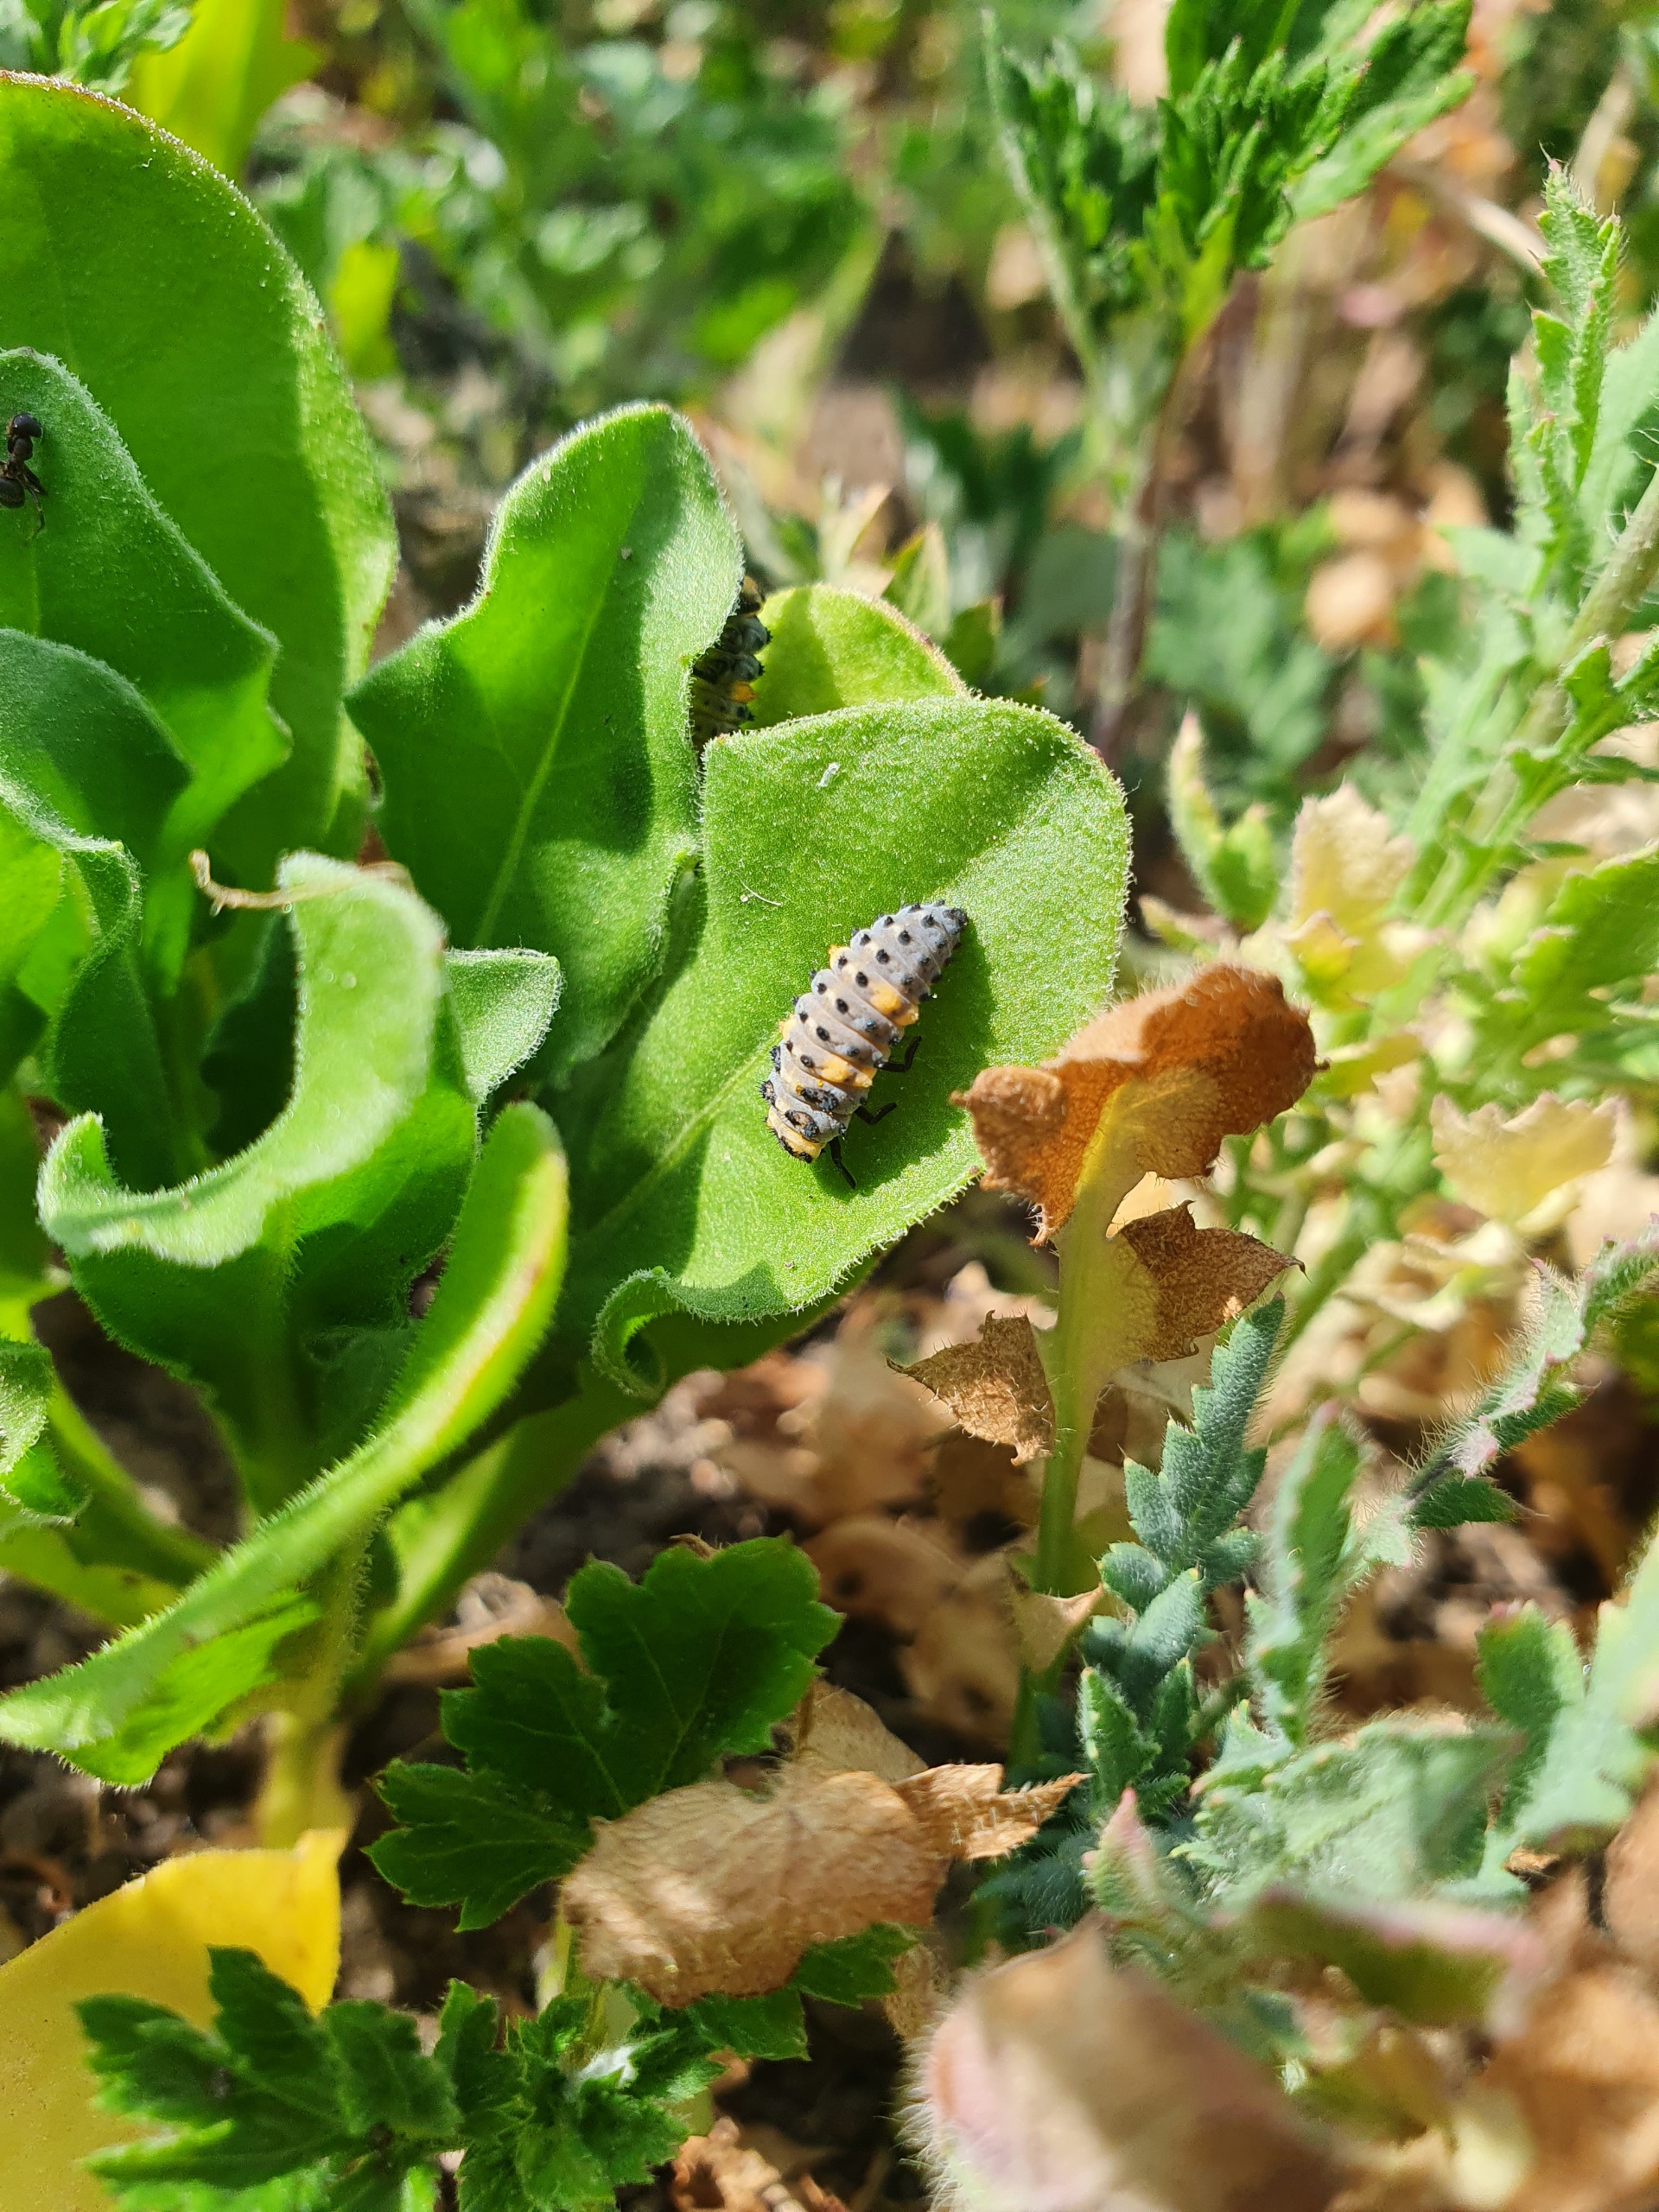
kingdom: Animalia
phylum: Arthropoda
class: Insecta
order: Coleoptera
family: Coccinellidae
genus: Coccinella
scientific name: Coccinella septempunctata
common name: Syvplettet mariehøne
